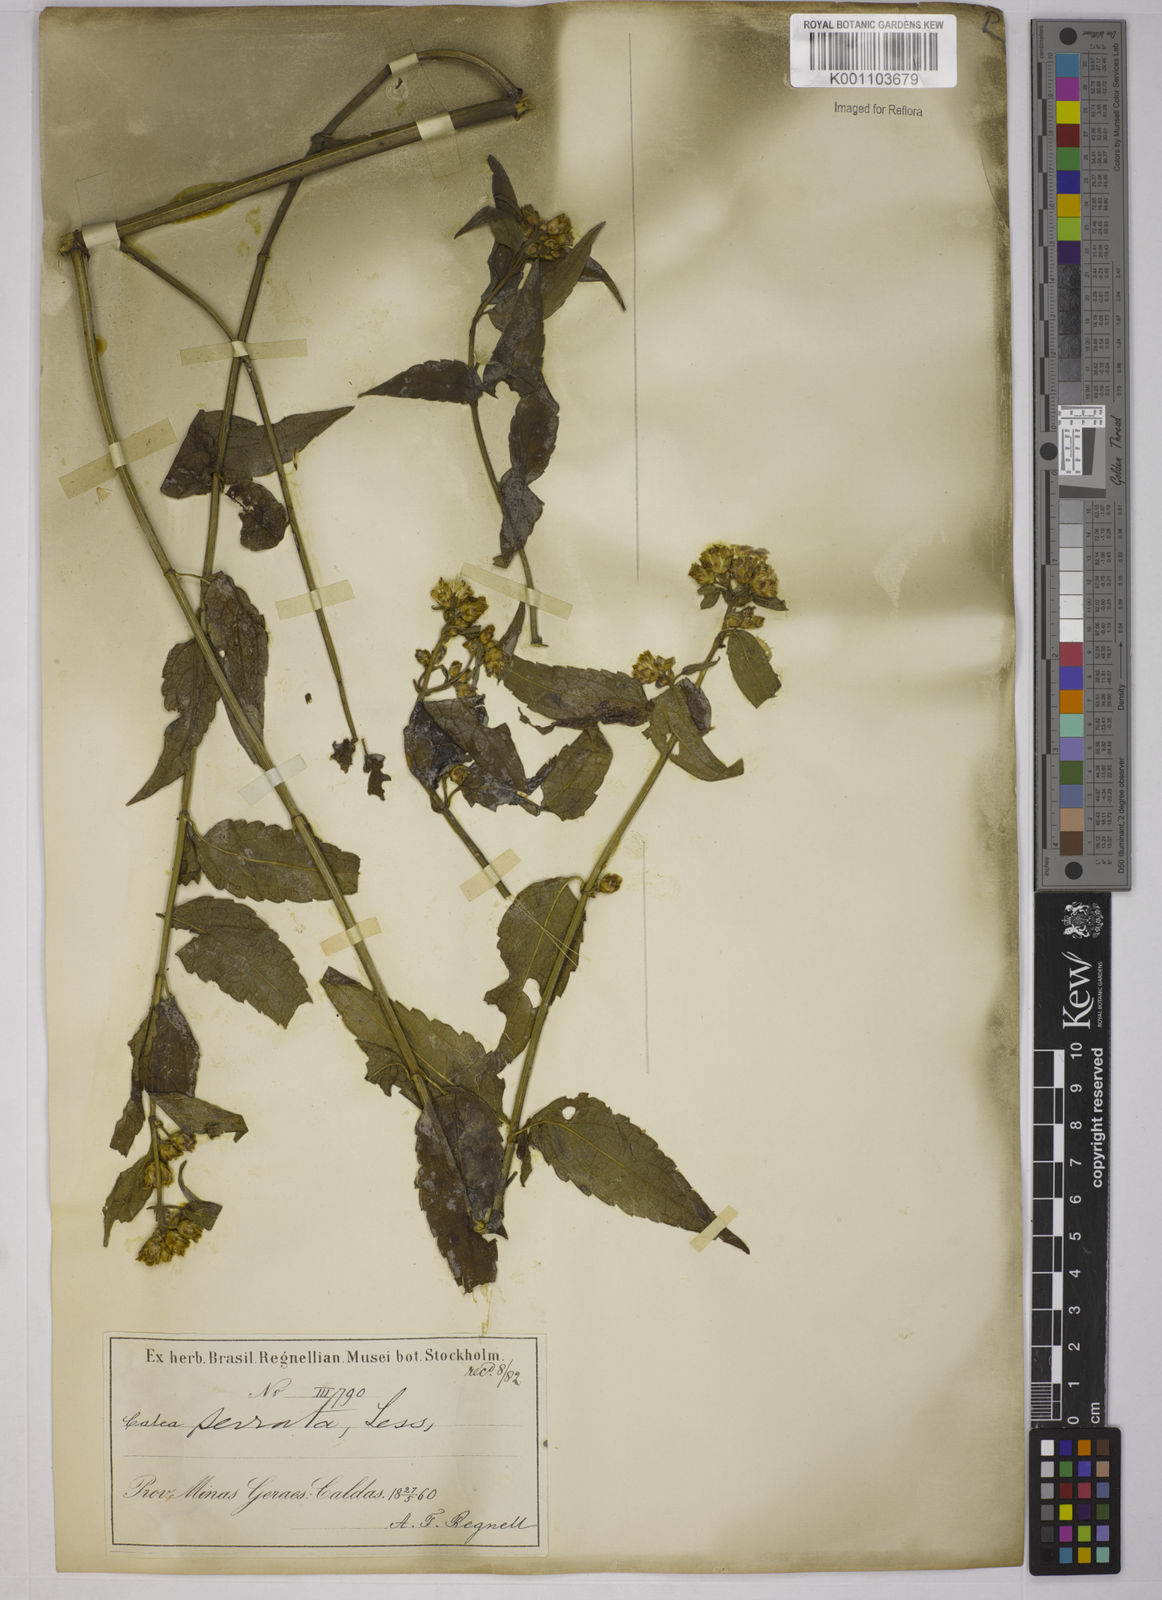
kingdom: Plantae
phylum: Tracheophyta
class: Magnoliopsida
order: Asterales
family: Asteraceae
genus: Calea
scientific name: Calea serrata
